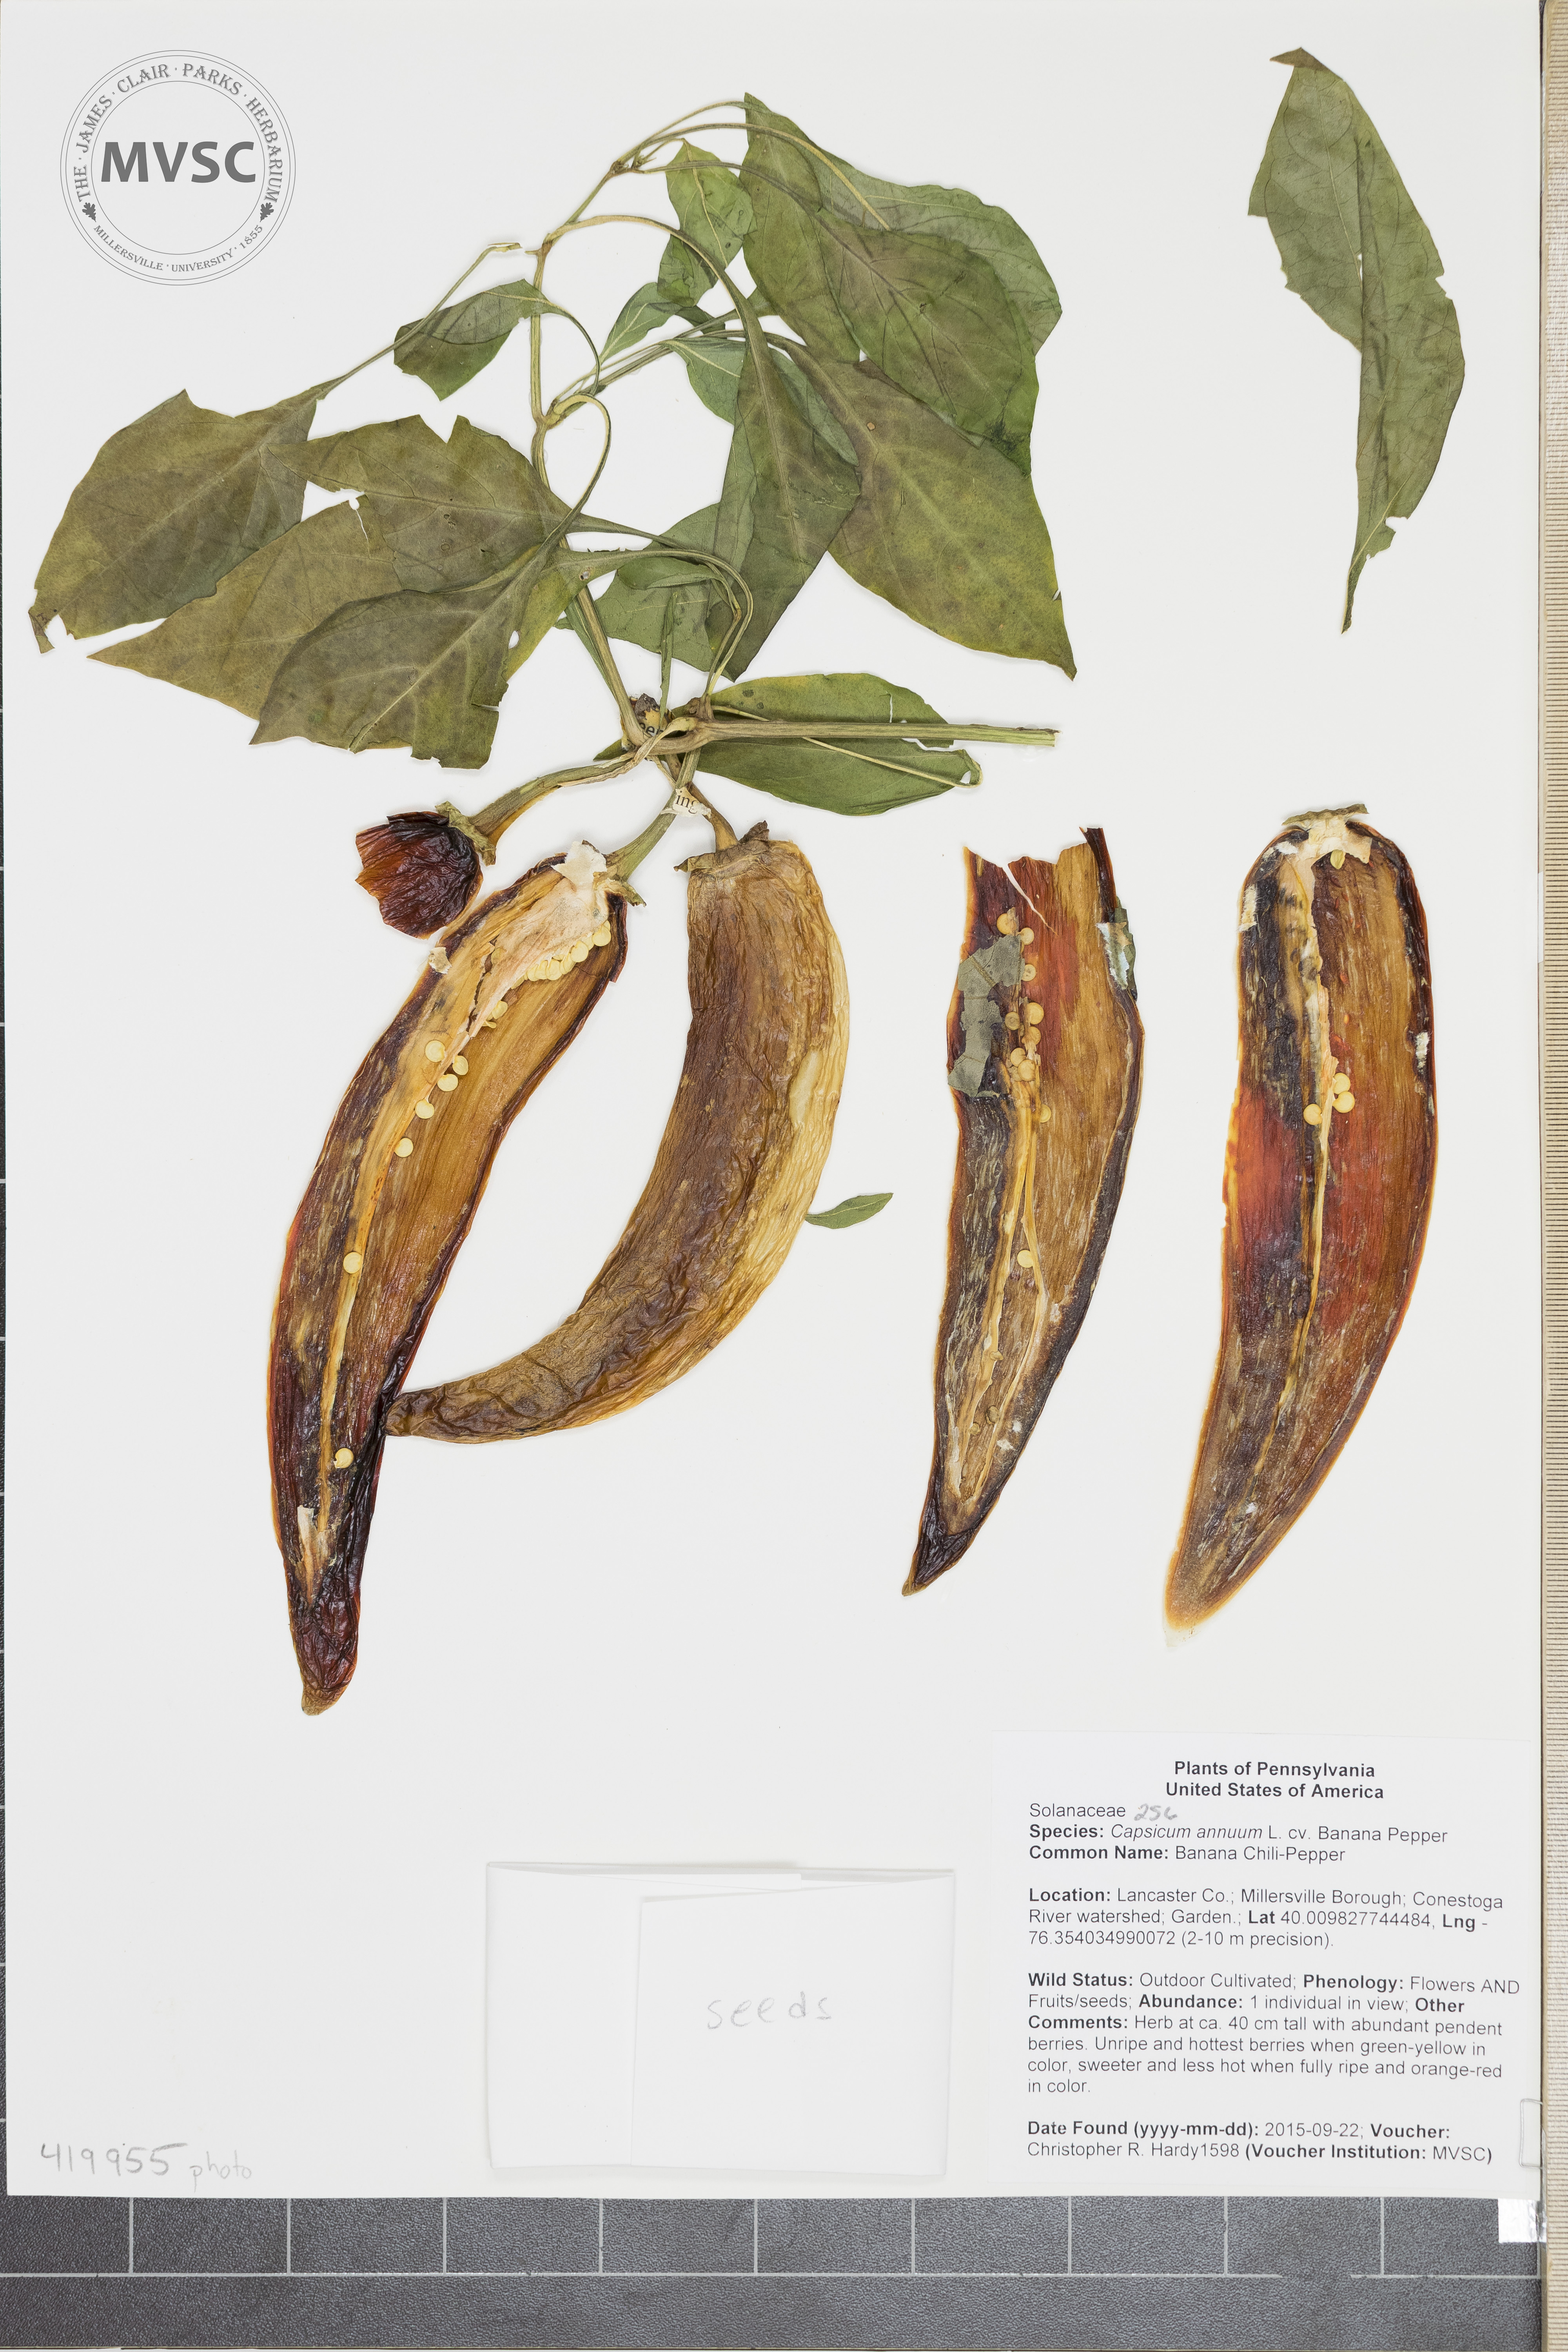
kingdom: Plantae
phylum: Tracheophyta
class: Magnoliopsida
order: Solanales
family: Solanaceae
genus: Capsicum
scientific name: Capsicum annuum
